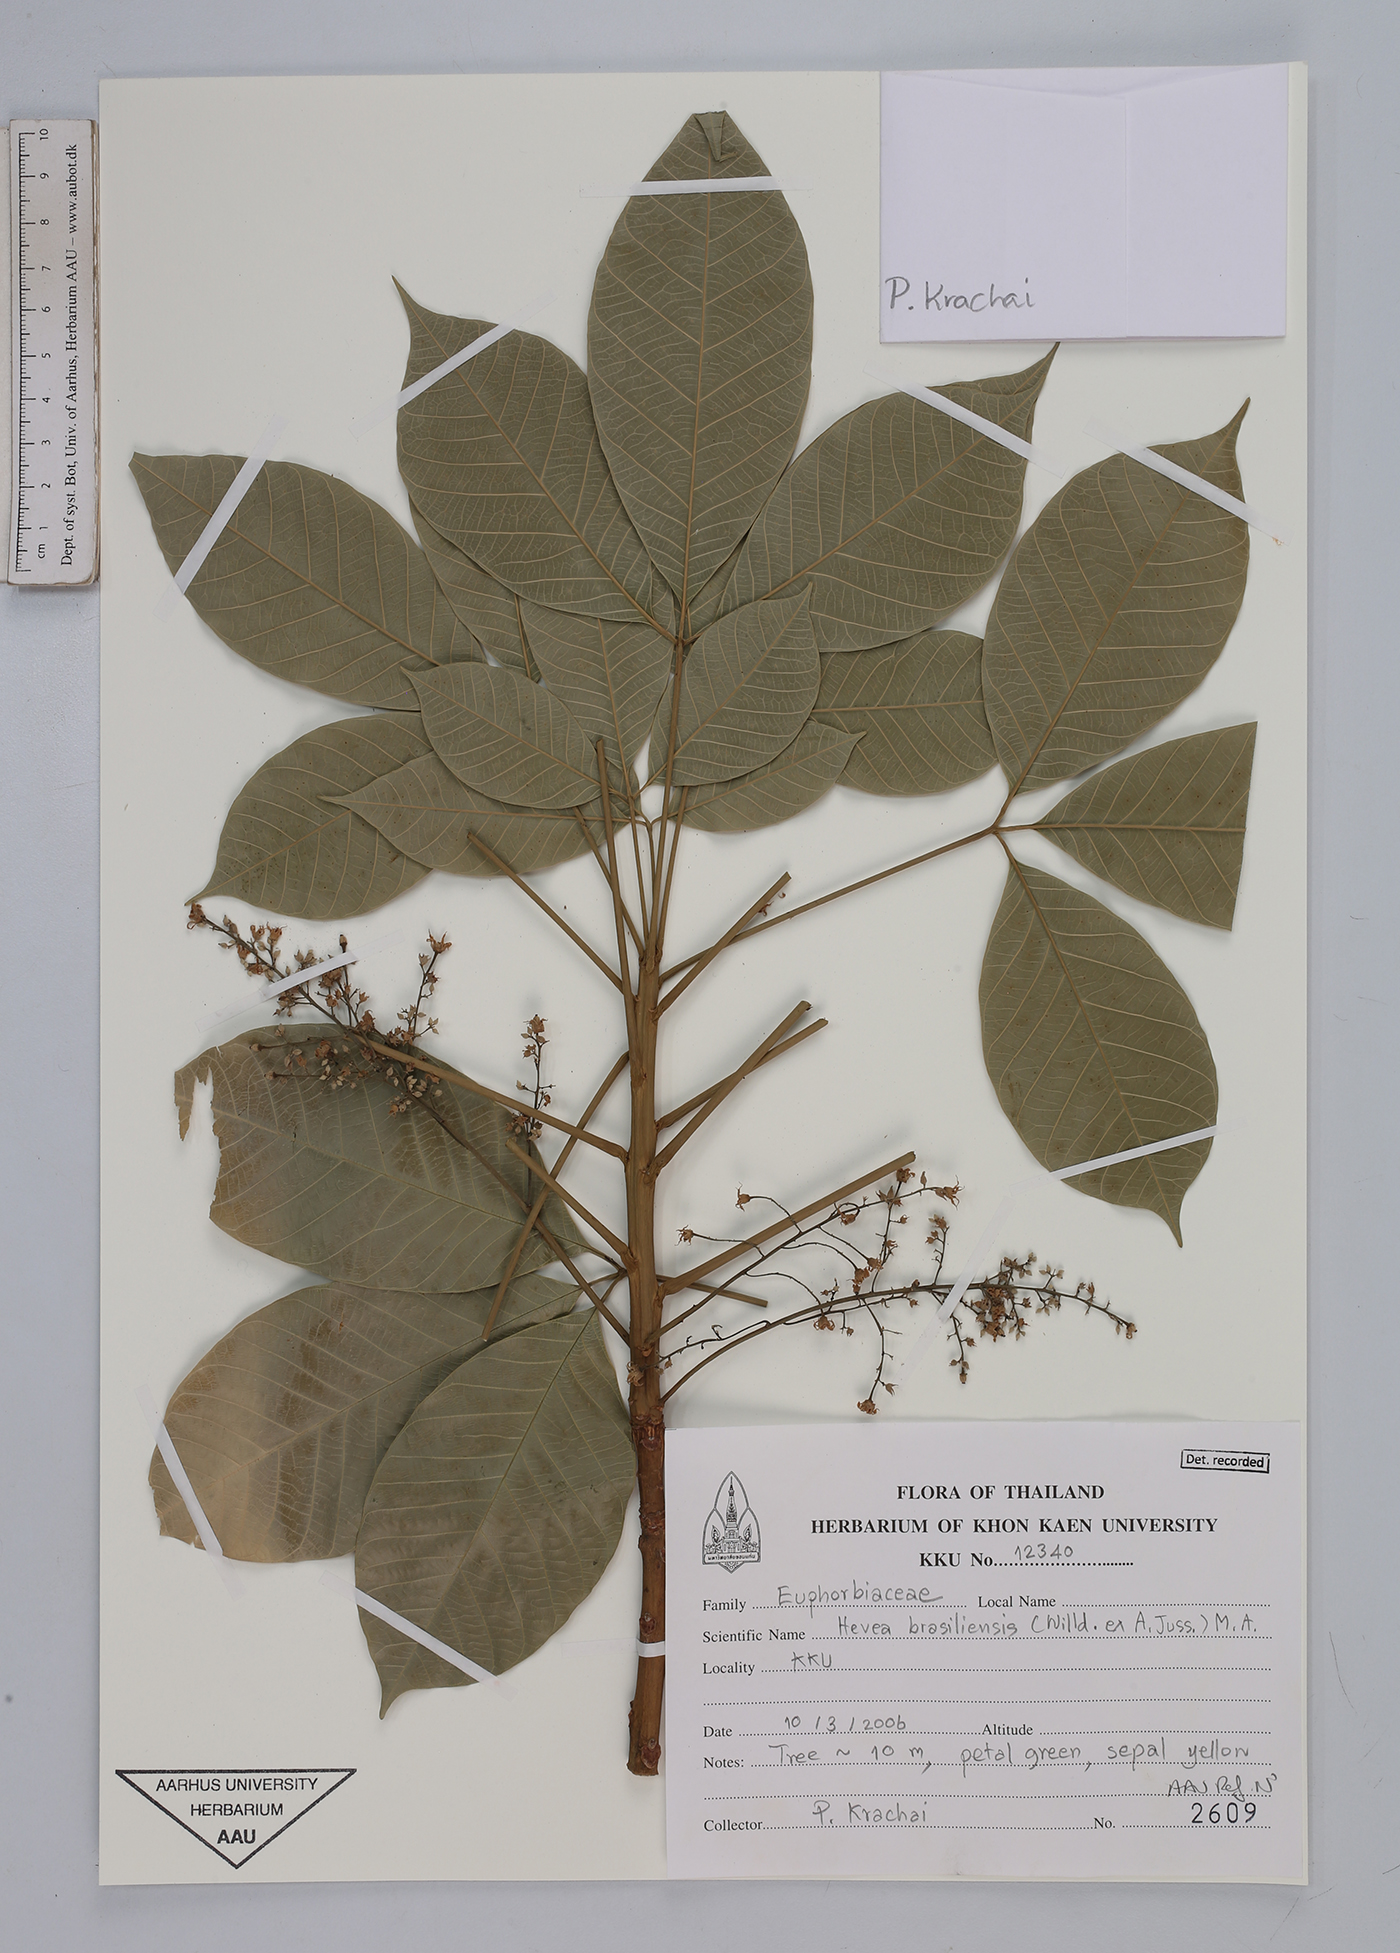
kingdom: Plantae
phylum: Tracheophyta
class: Magnoliopsida
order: Malpighiales
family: Euphorbiaceae
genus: Hevea
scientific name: Hevea brasiliensis
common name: Natural rubber
